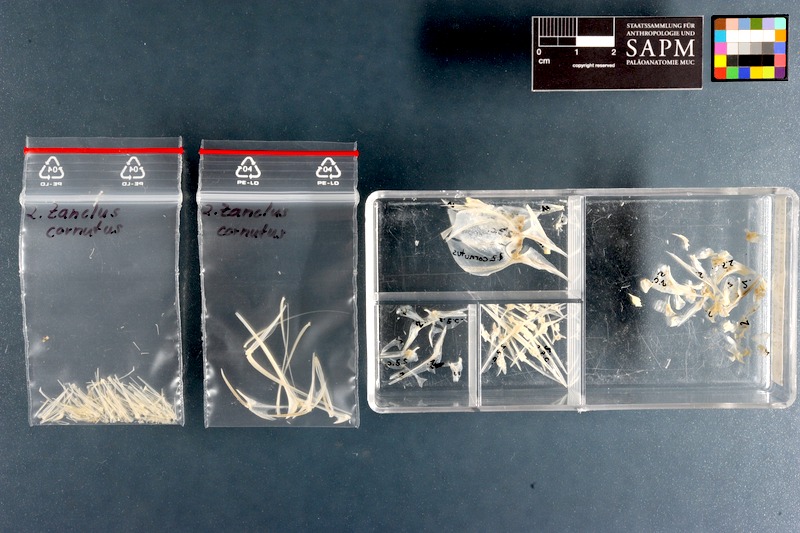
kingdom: Animalia
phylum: Chordata
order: Perciformes
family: Zanclidae
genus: Zanclus
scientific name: Zanclus cornutus
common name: Moorish idol
